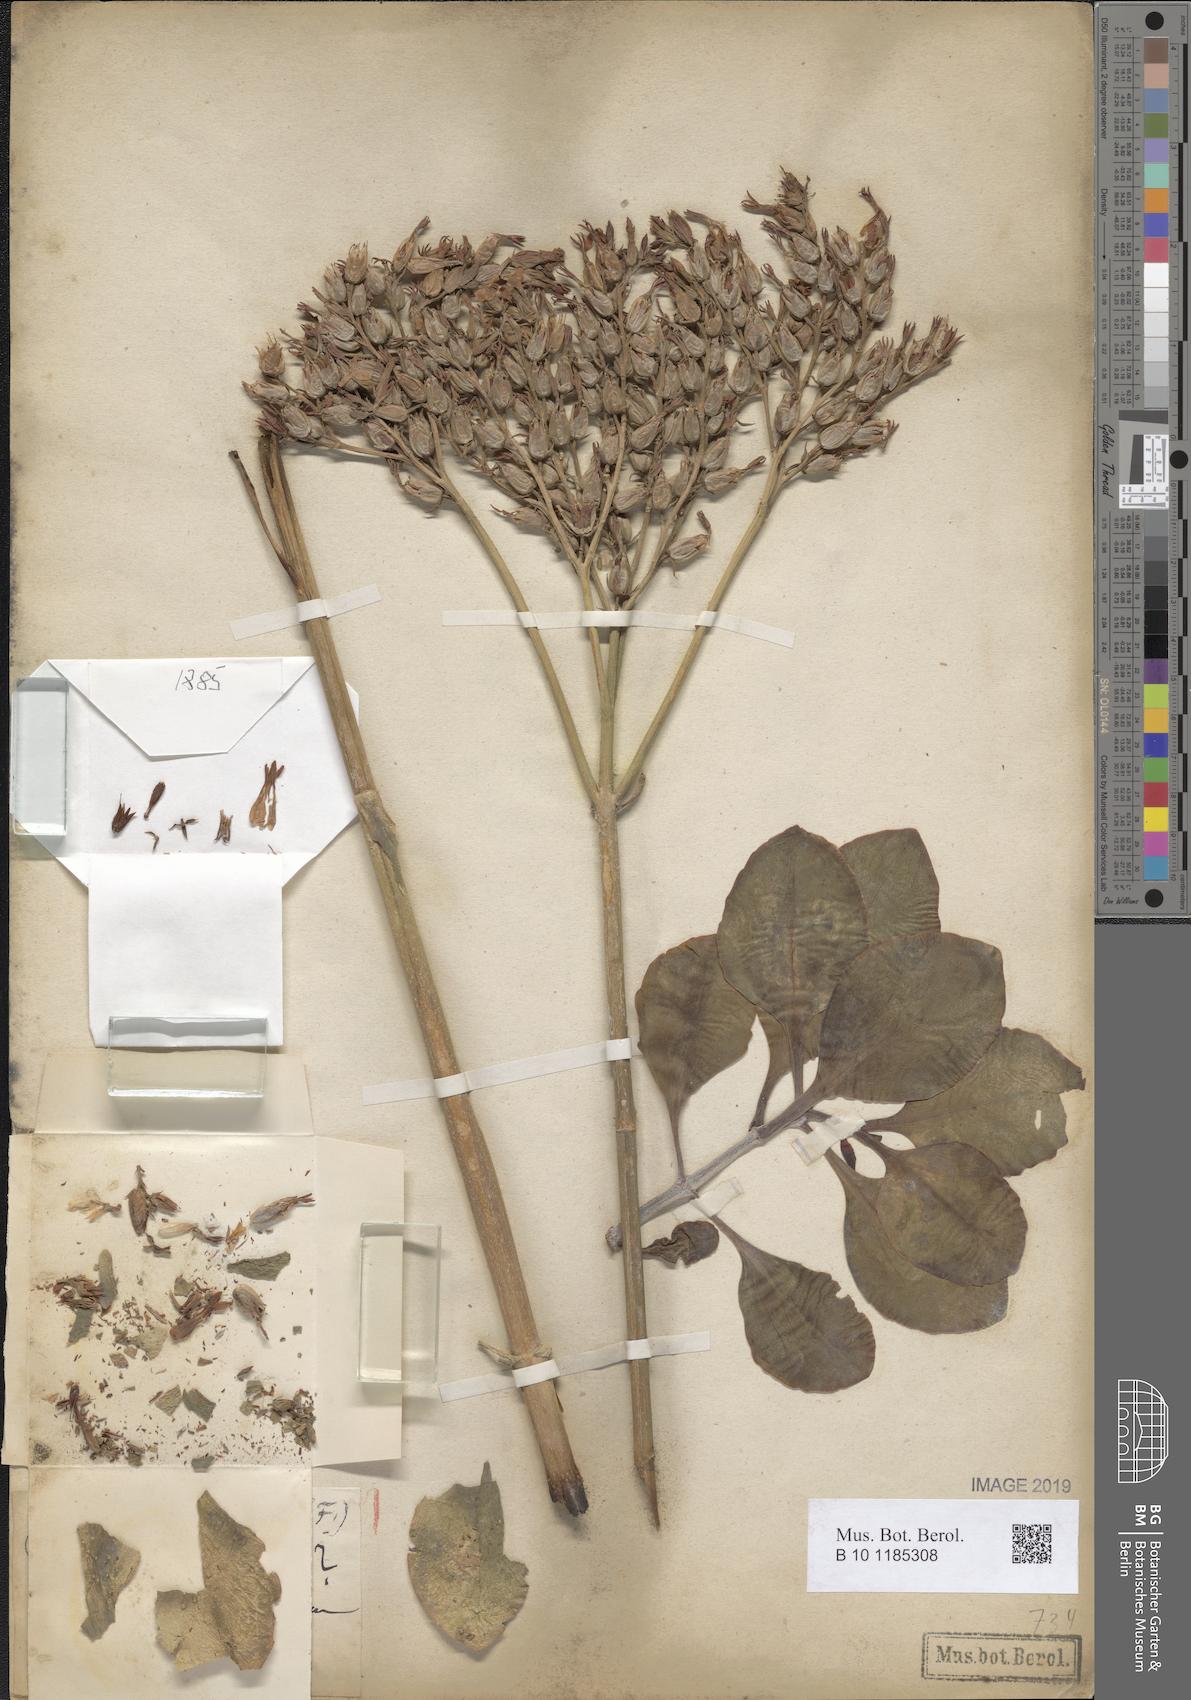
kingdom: Plantae
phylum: Tracheophyta
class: Magnoliopsida
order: Saxifragales
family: Crassulaceae
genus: Kalanchoe
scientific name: Kalanchoe deficiens
